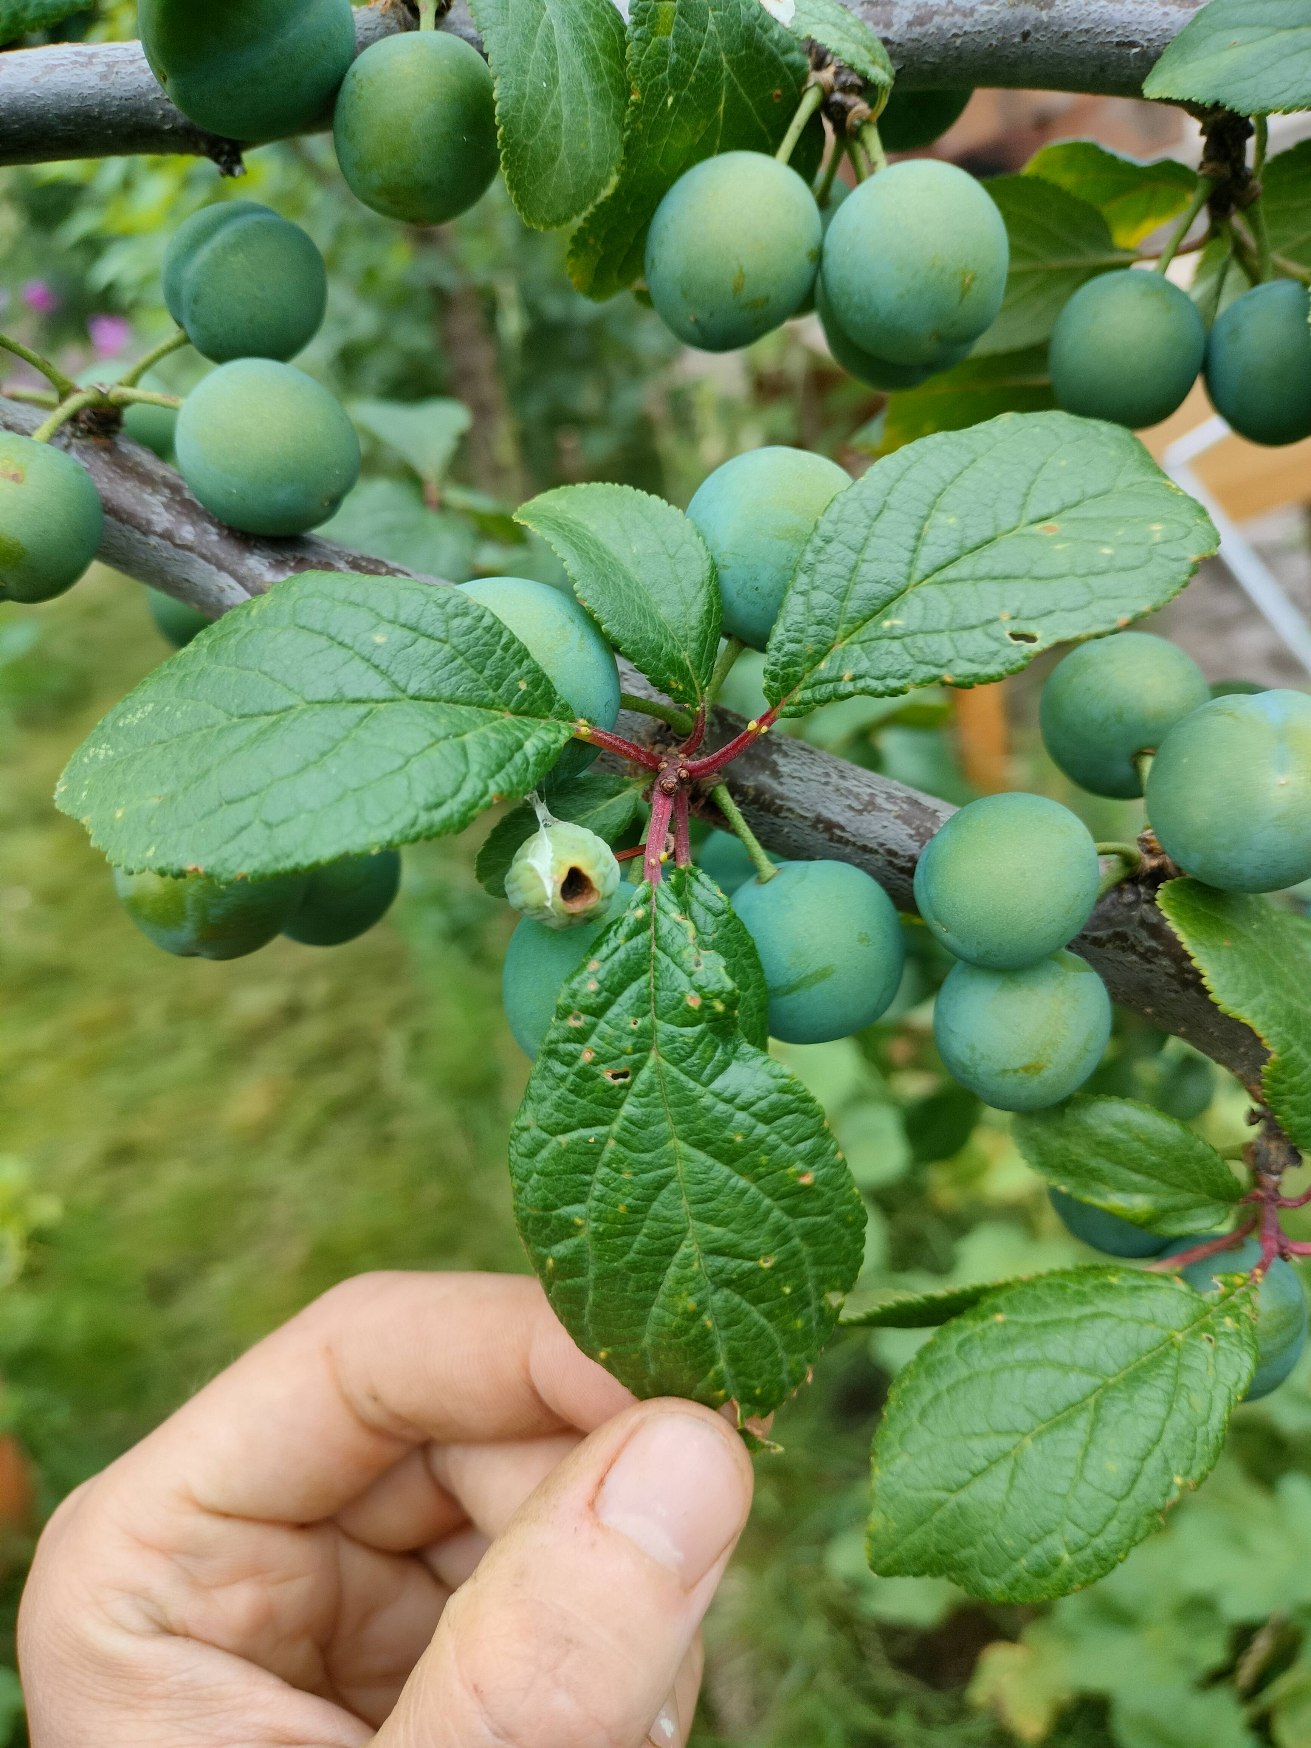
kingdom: Plantae
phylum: Tracheophyta
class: Magnoliopsida
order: Rosales
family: Rosaceae
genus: Prunus
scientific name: Prunus spinosa
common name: Slåen
